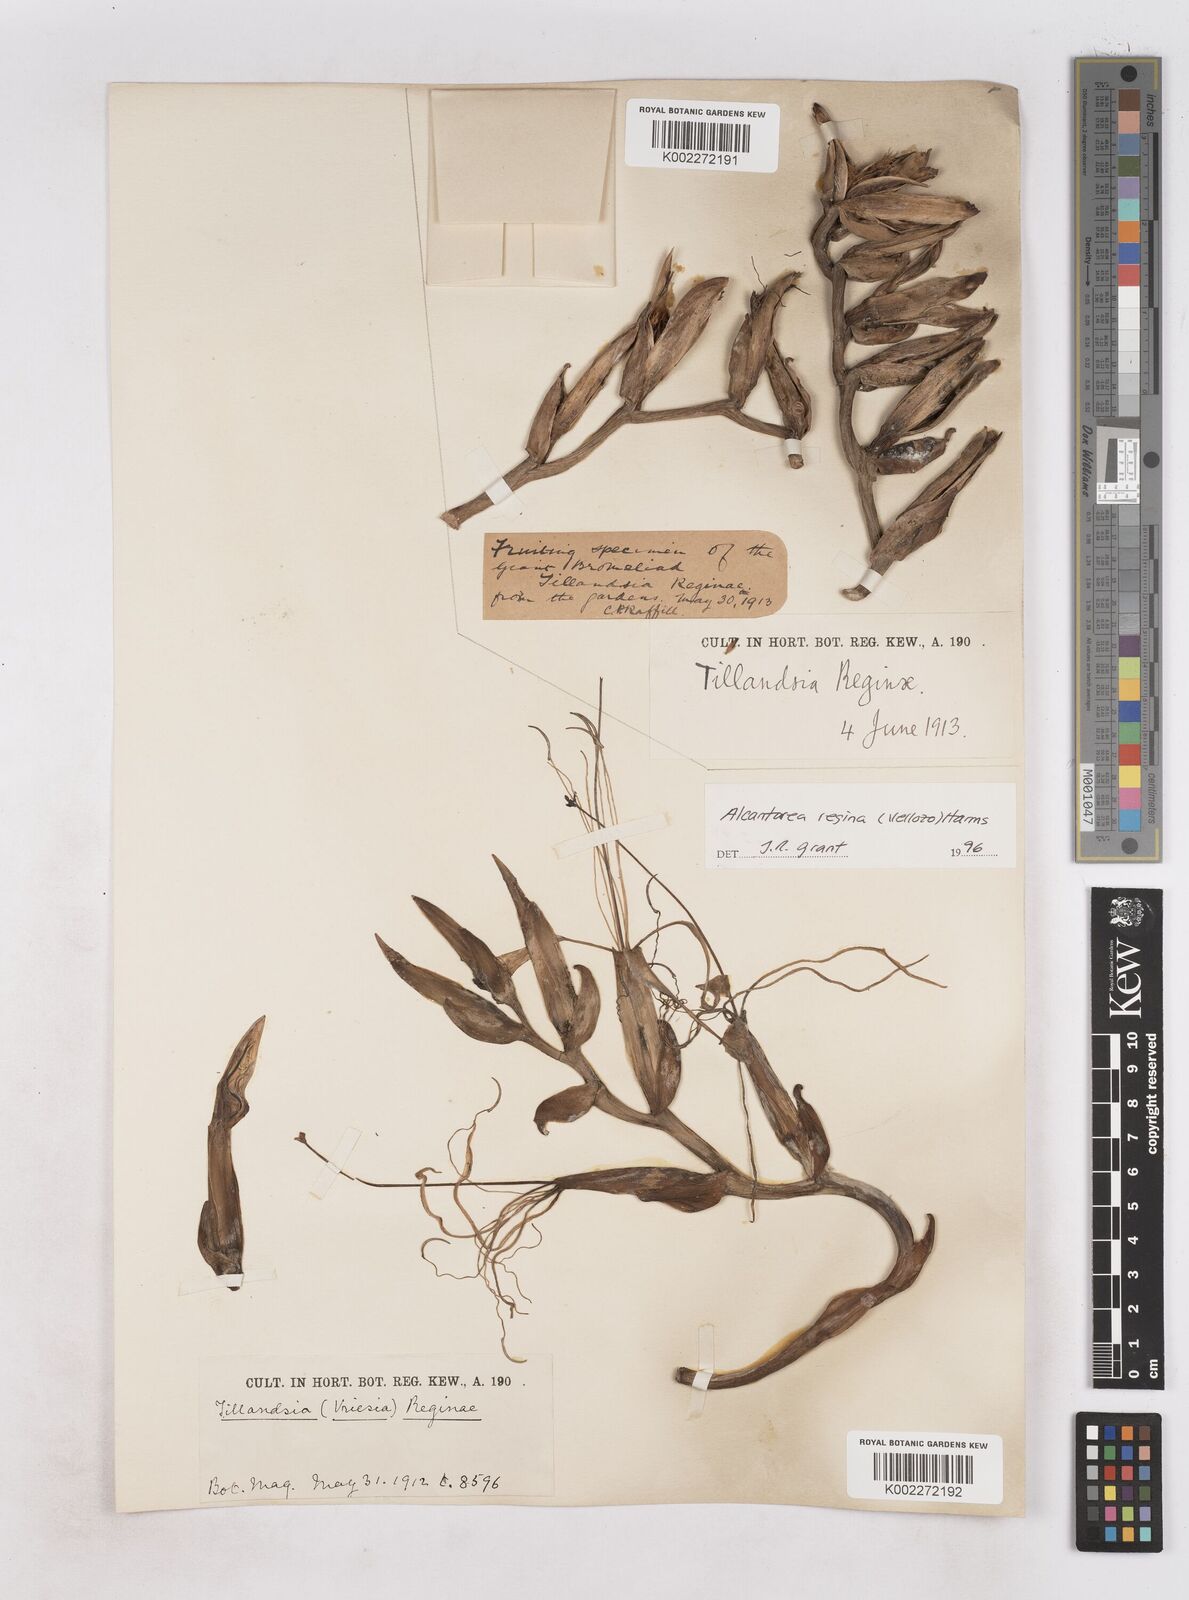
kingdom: Plantae
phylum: Tracheophyta
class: Liliopsida
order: Poales
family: Bromeliaceae
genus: Alcantarea
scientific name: Alcantarea regina
